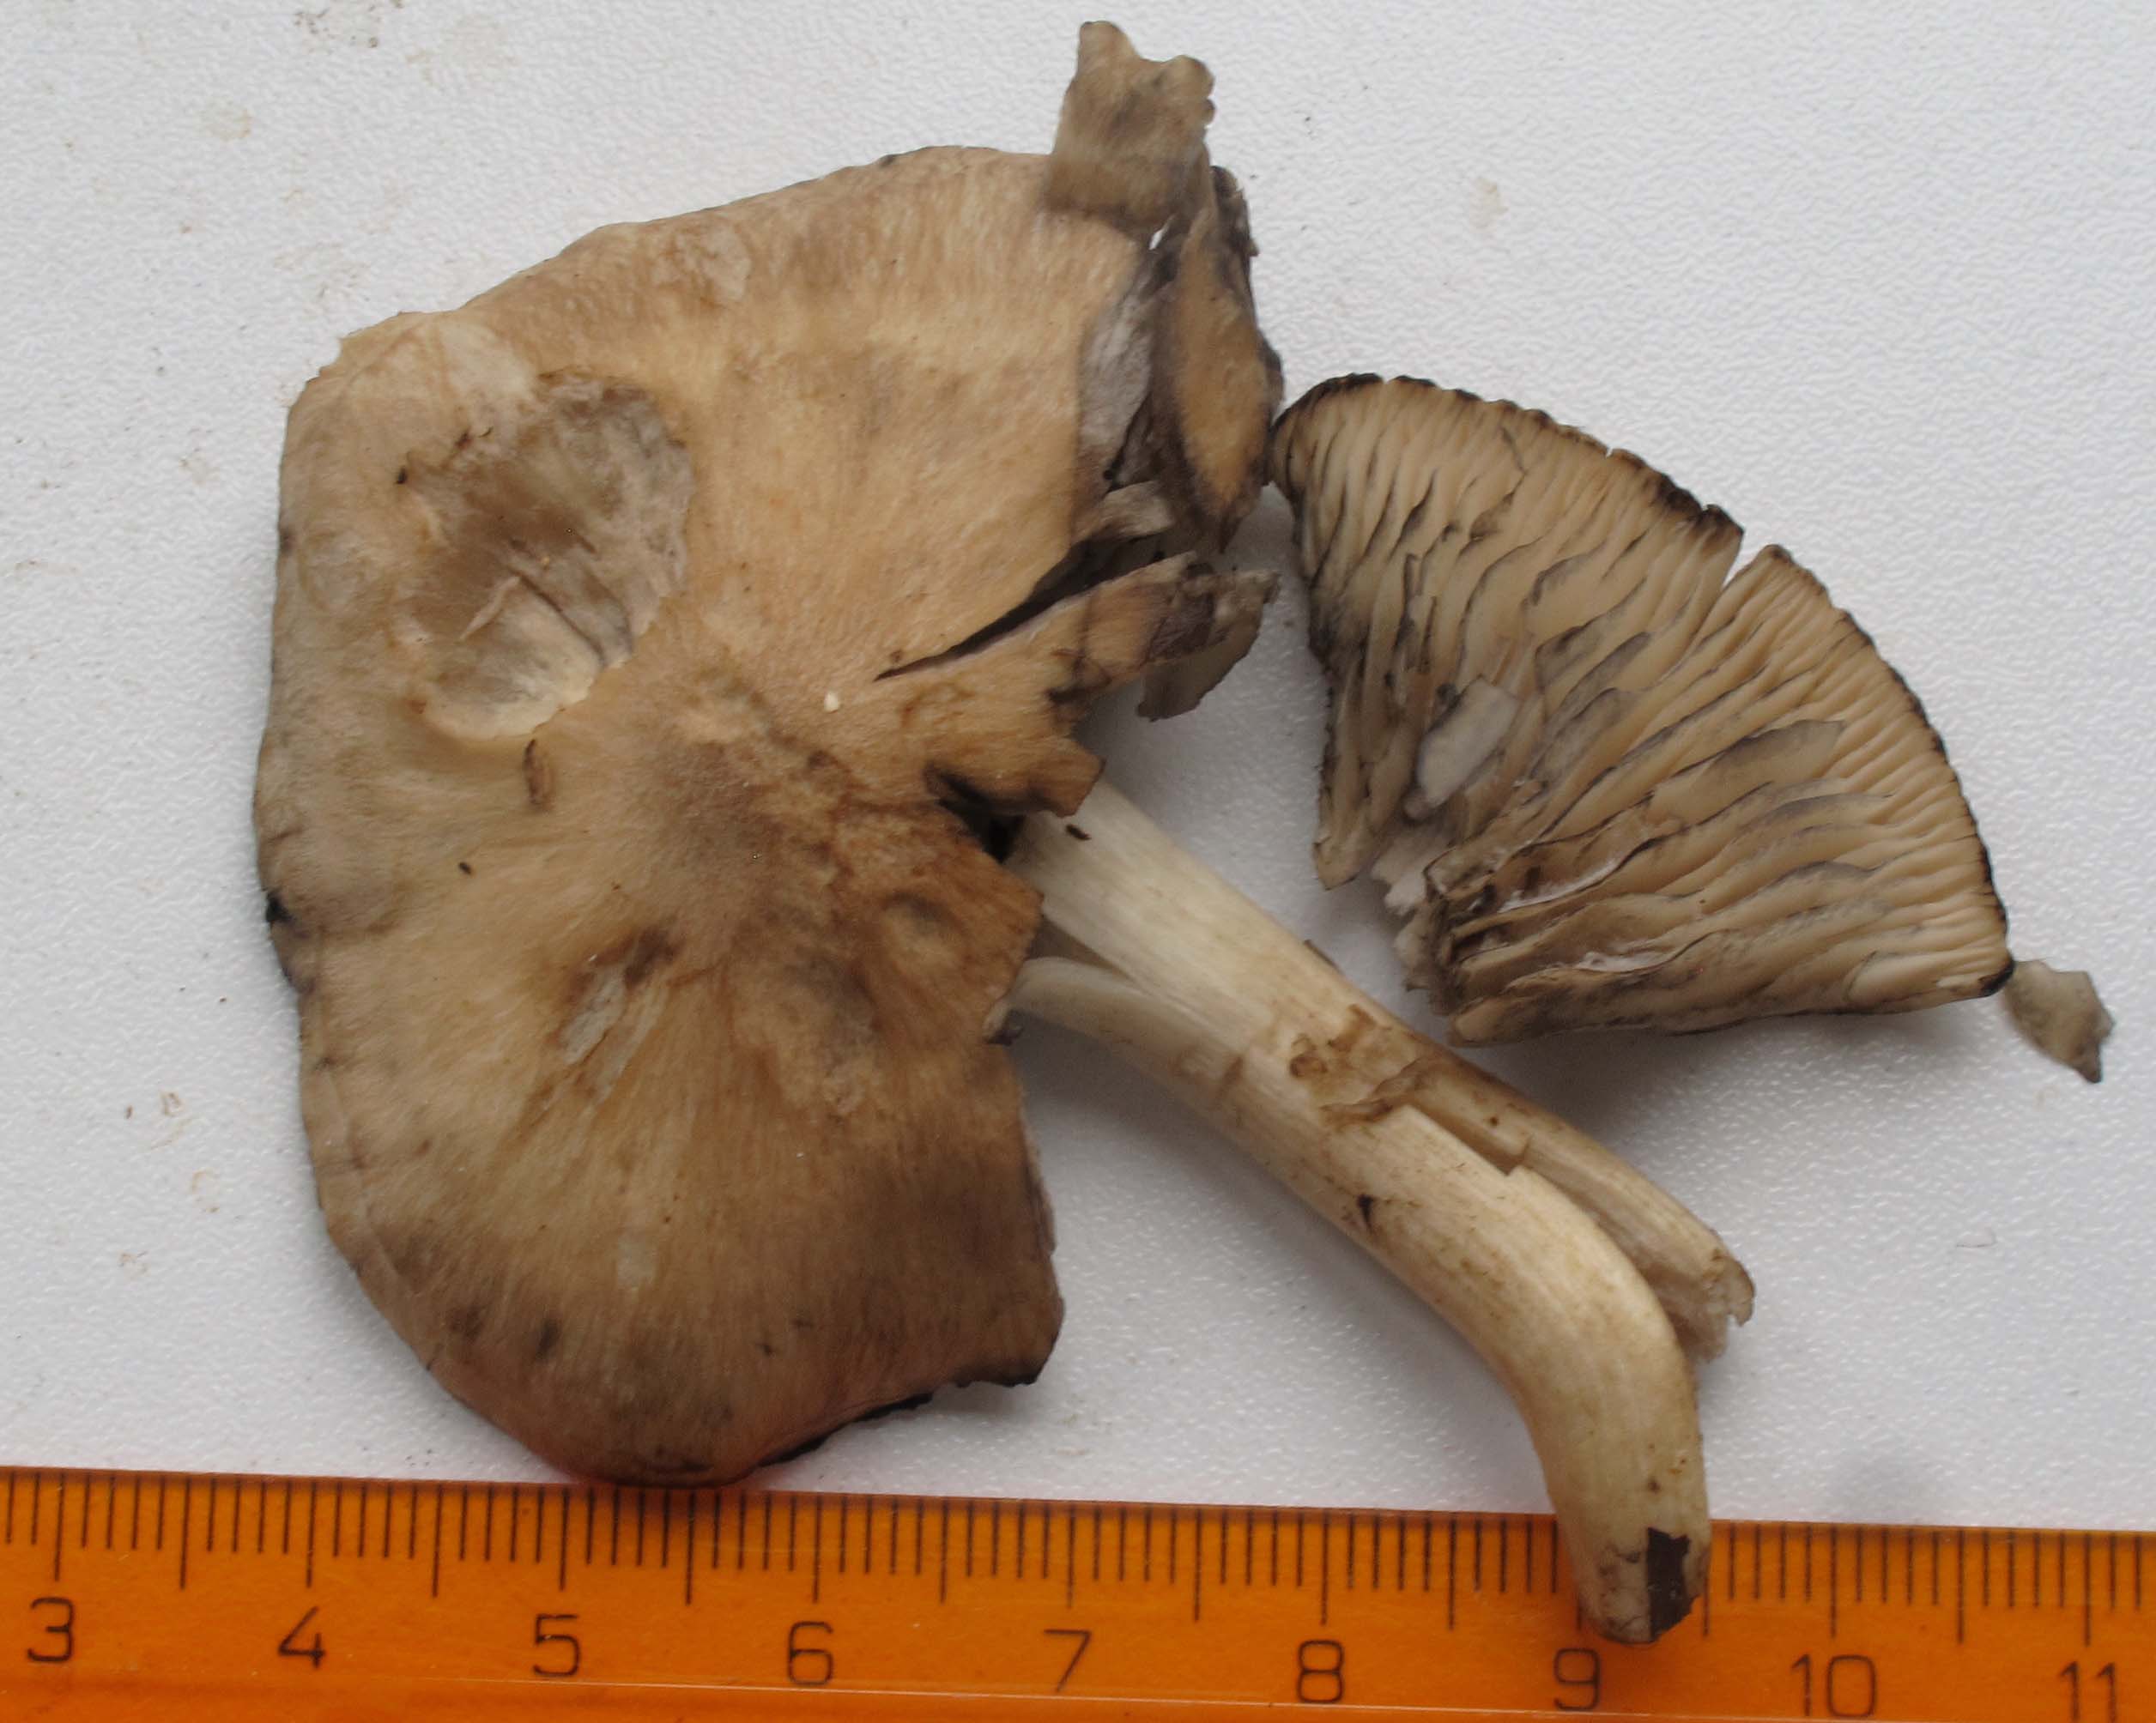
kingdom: Fungi
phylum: Basidiomycota
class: Agaricomycetes
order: Agaricales
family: Lyophyllaceae
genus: Lyophyllum
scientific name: Lyophyllum paelochroum
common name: blånende gråblad
